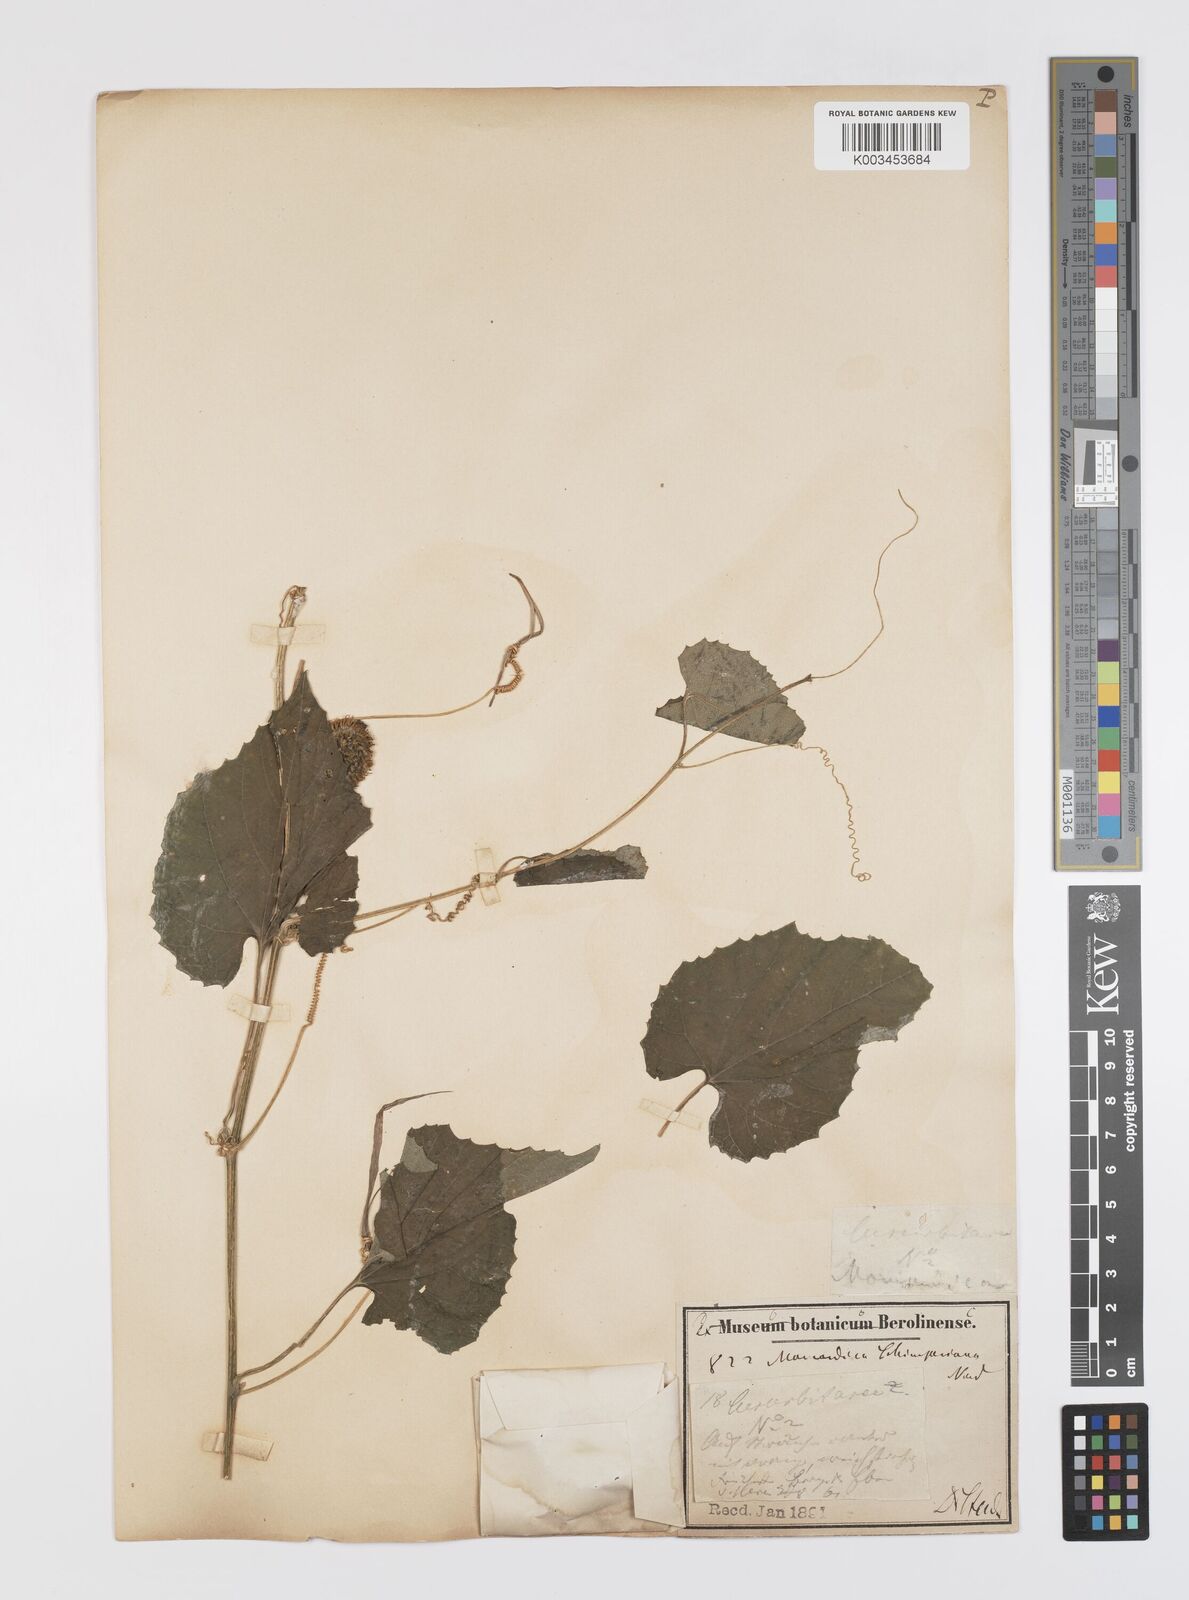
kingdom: Plantae
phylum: Tracheophyta
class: Magnoliopsida
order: Cucurbitales
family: Cucurbitaceae
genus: Momordica
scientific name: Momordica foetida
